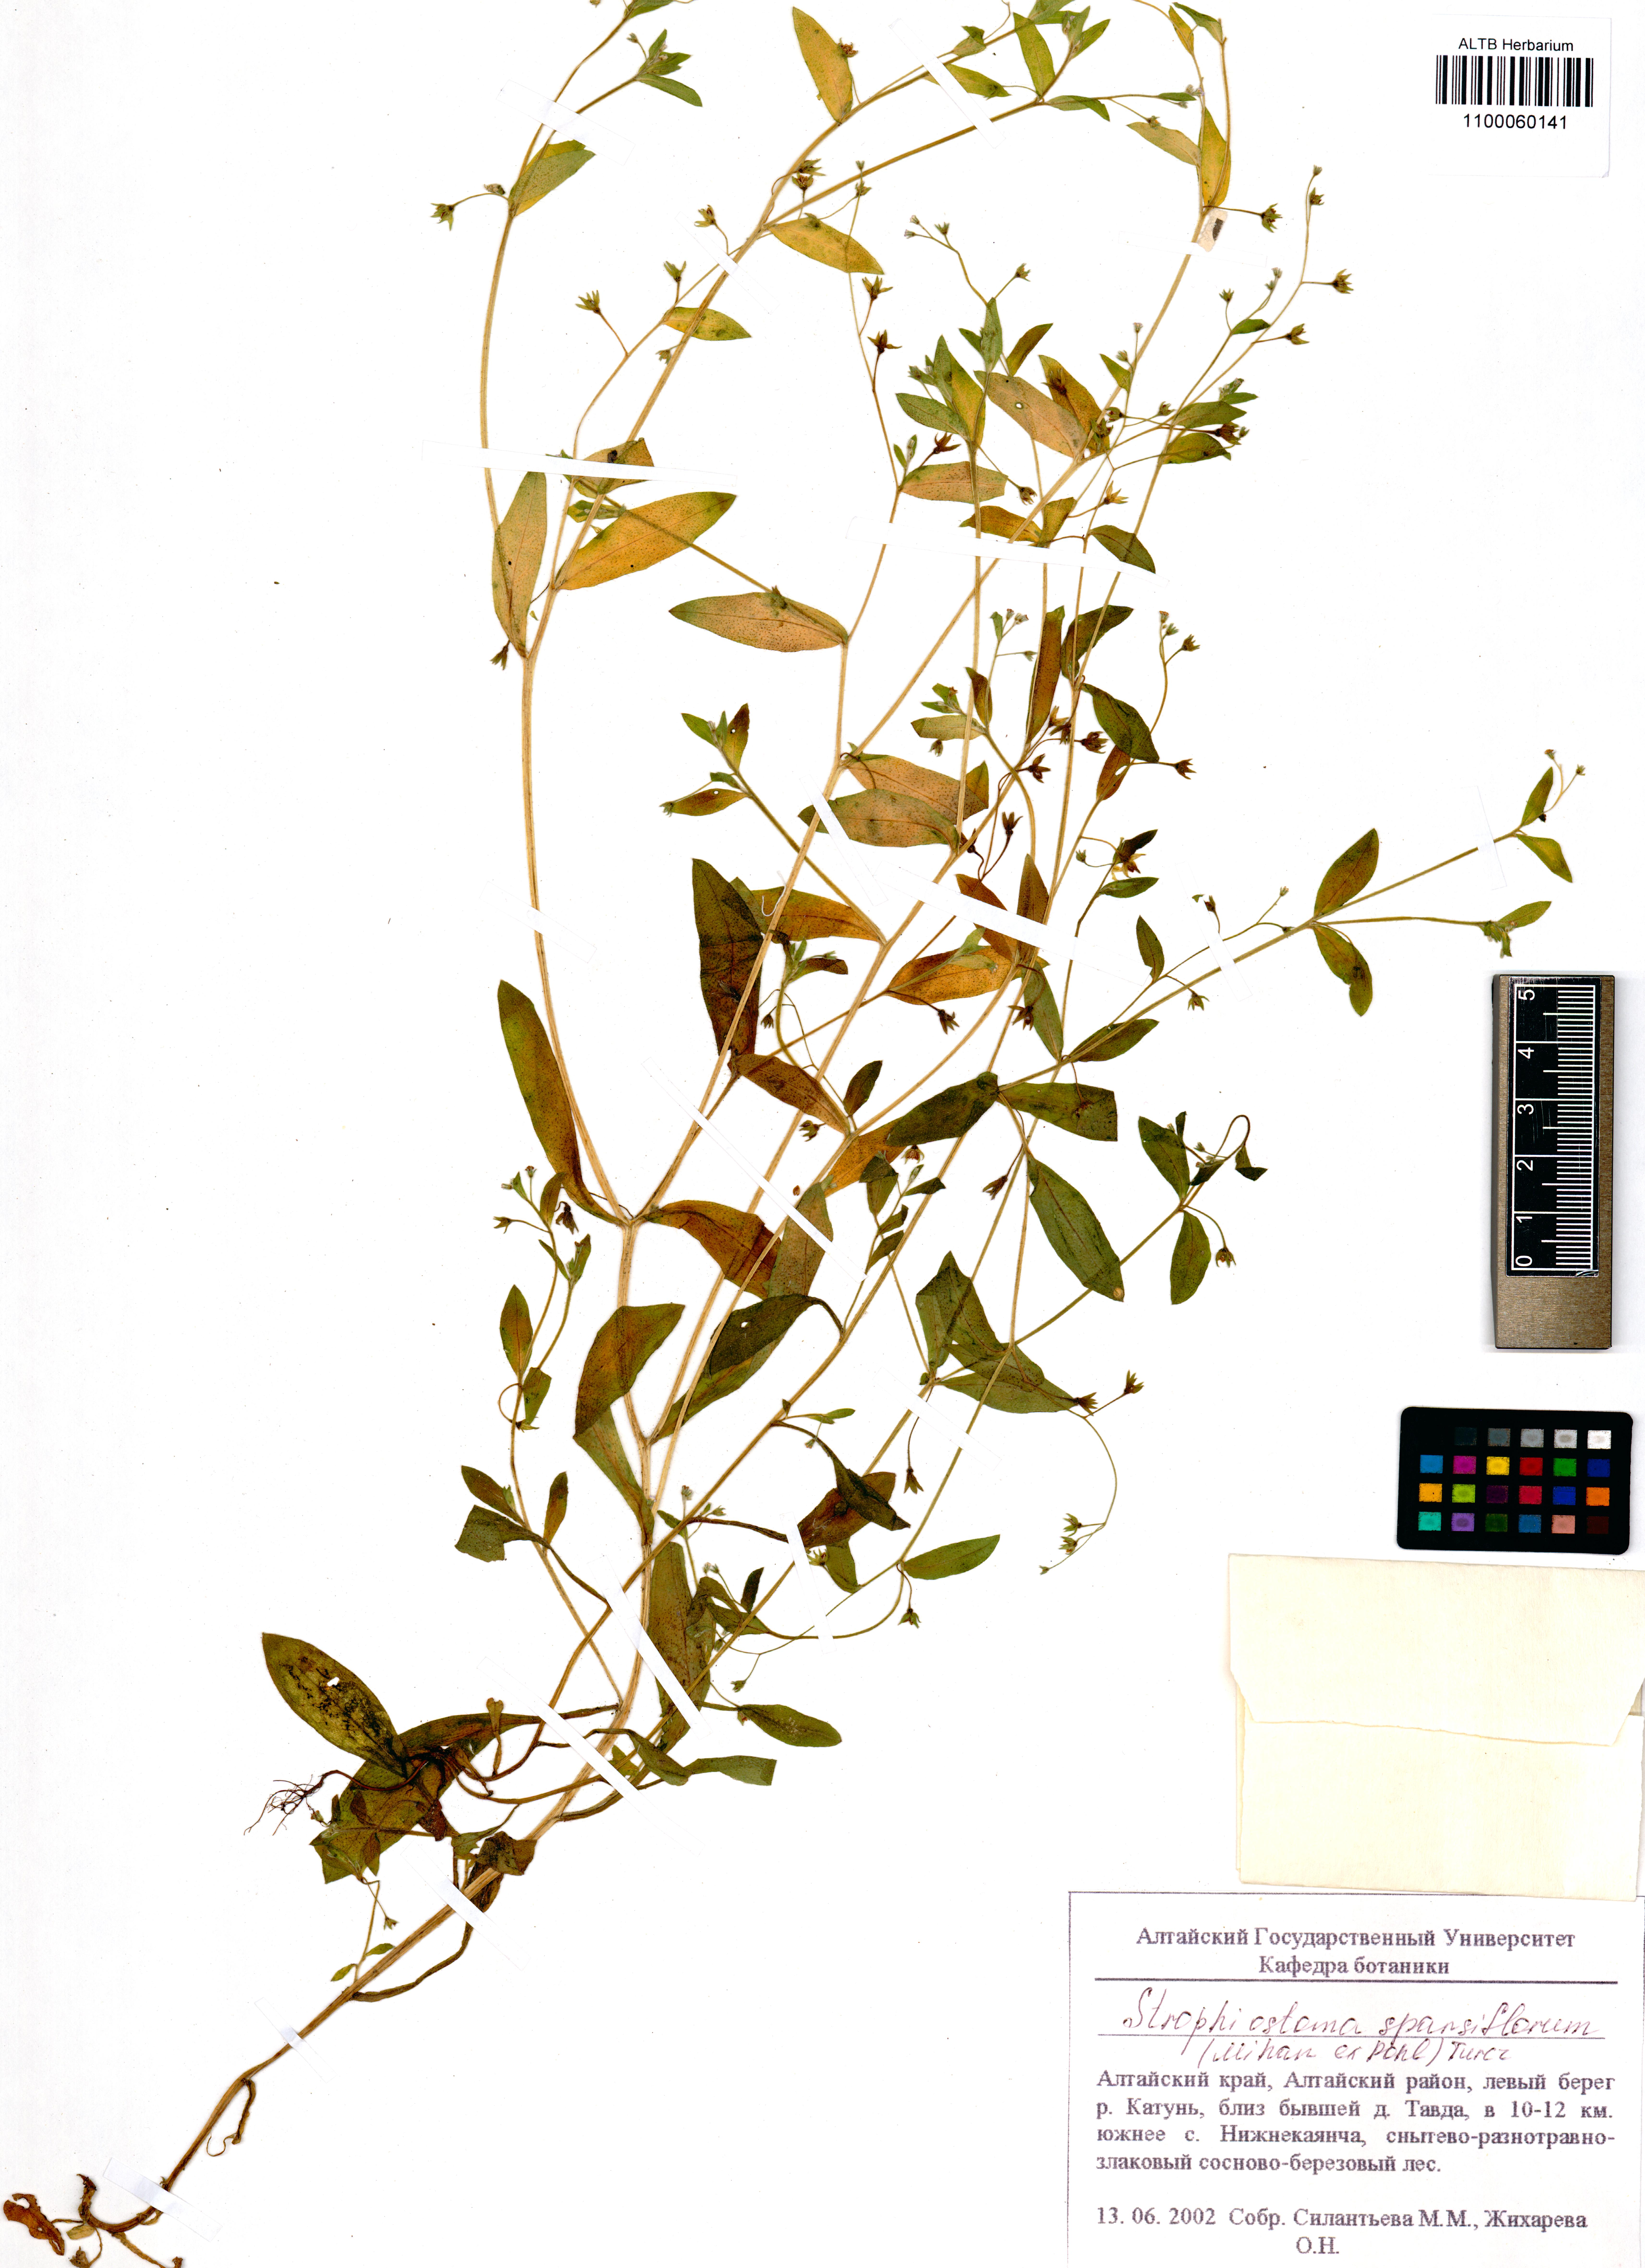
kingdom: Plantae
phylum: Tracheophyta
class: Magnoliopsida
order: Boraginales
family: Boraginaceae
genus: Myosotis
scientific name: Myosotis sparsiflora
